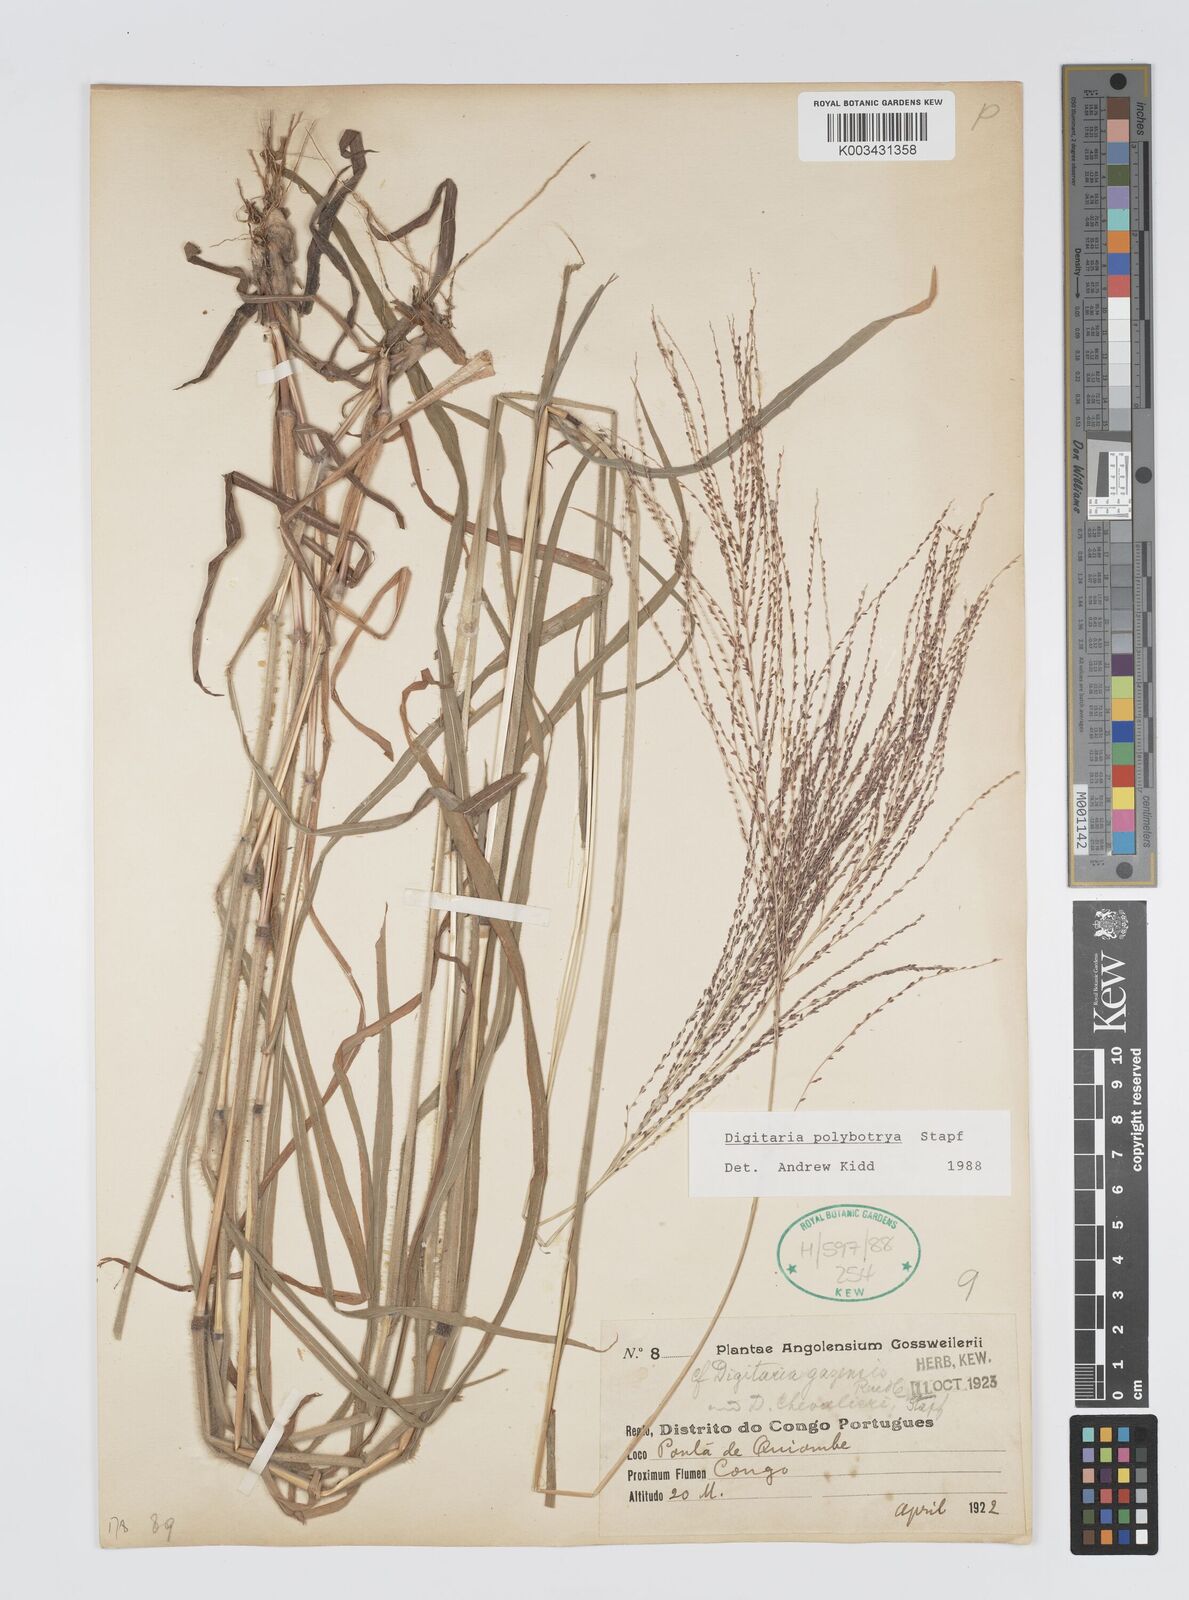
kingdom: Plantae
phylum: Tracheophyta
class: Liliopsida
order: Poales
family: Poaceae
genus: Digitaria
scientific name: Digitaria leptorhachis
